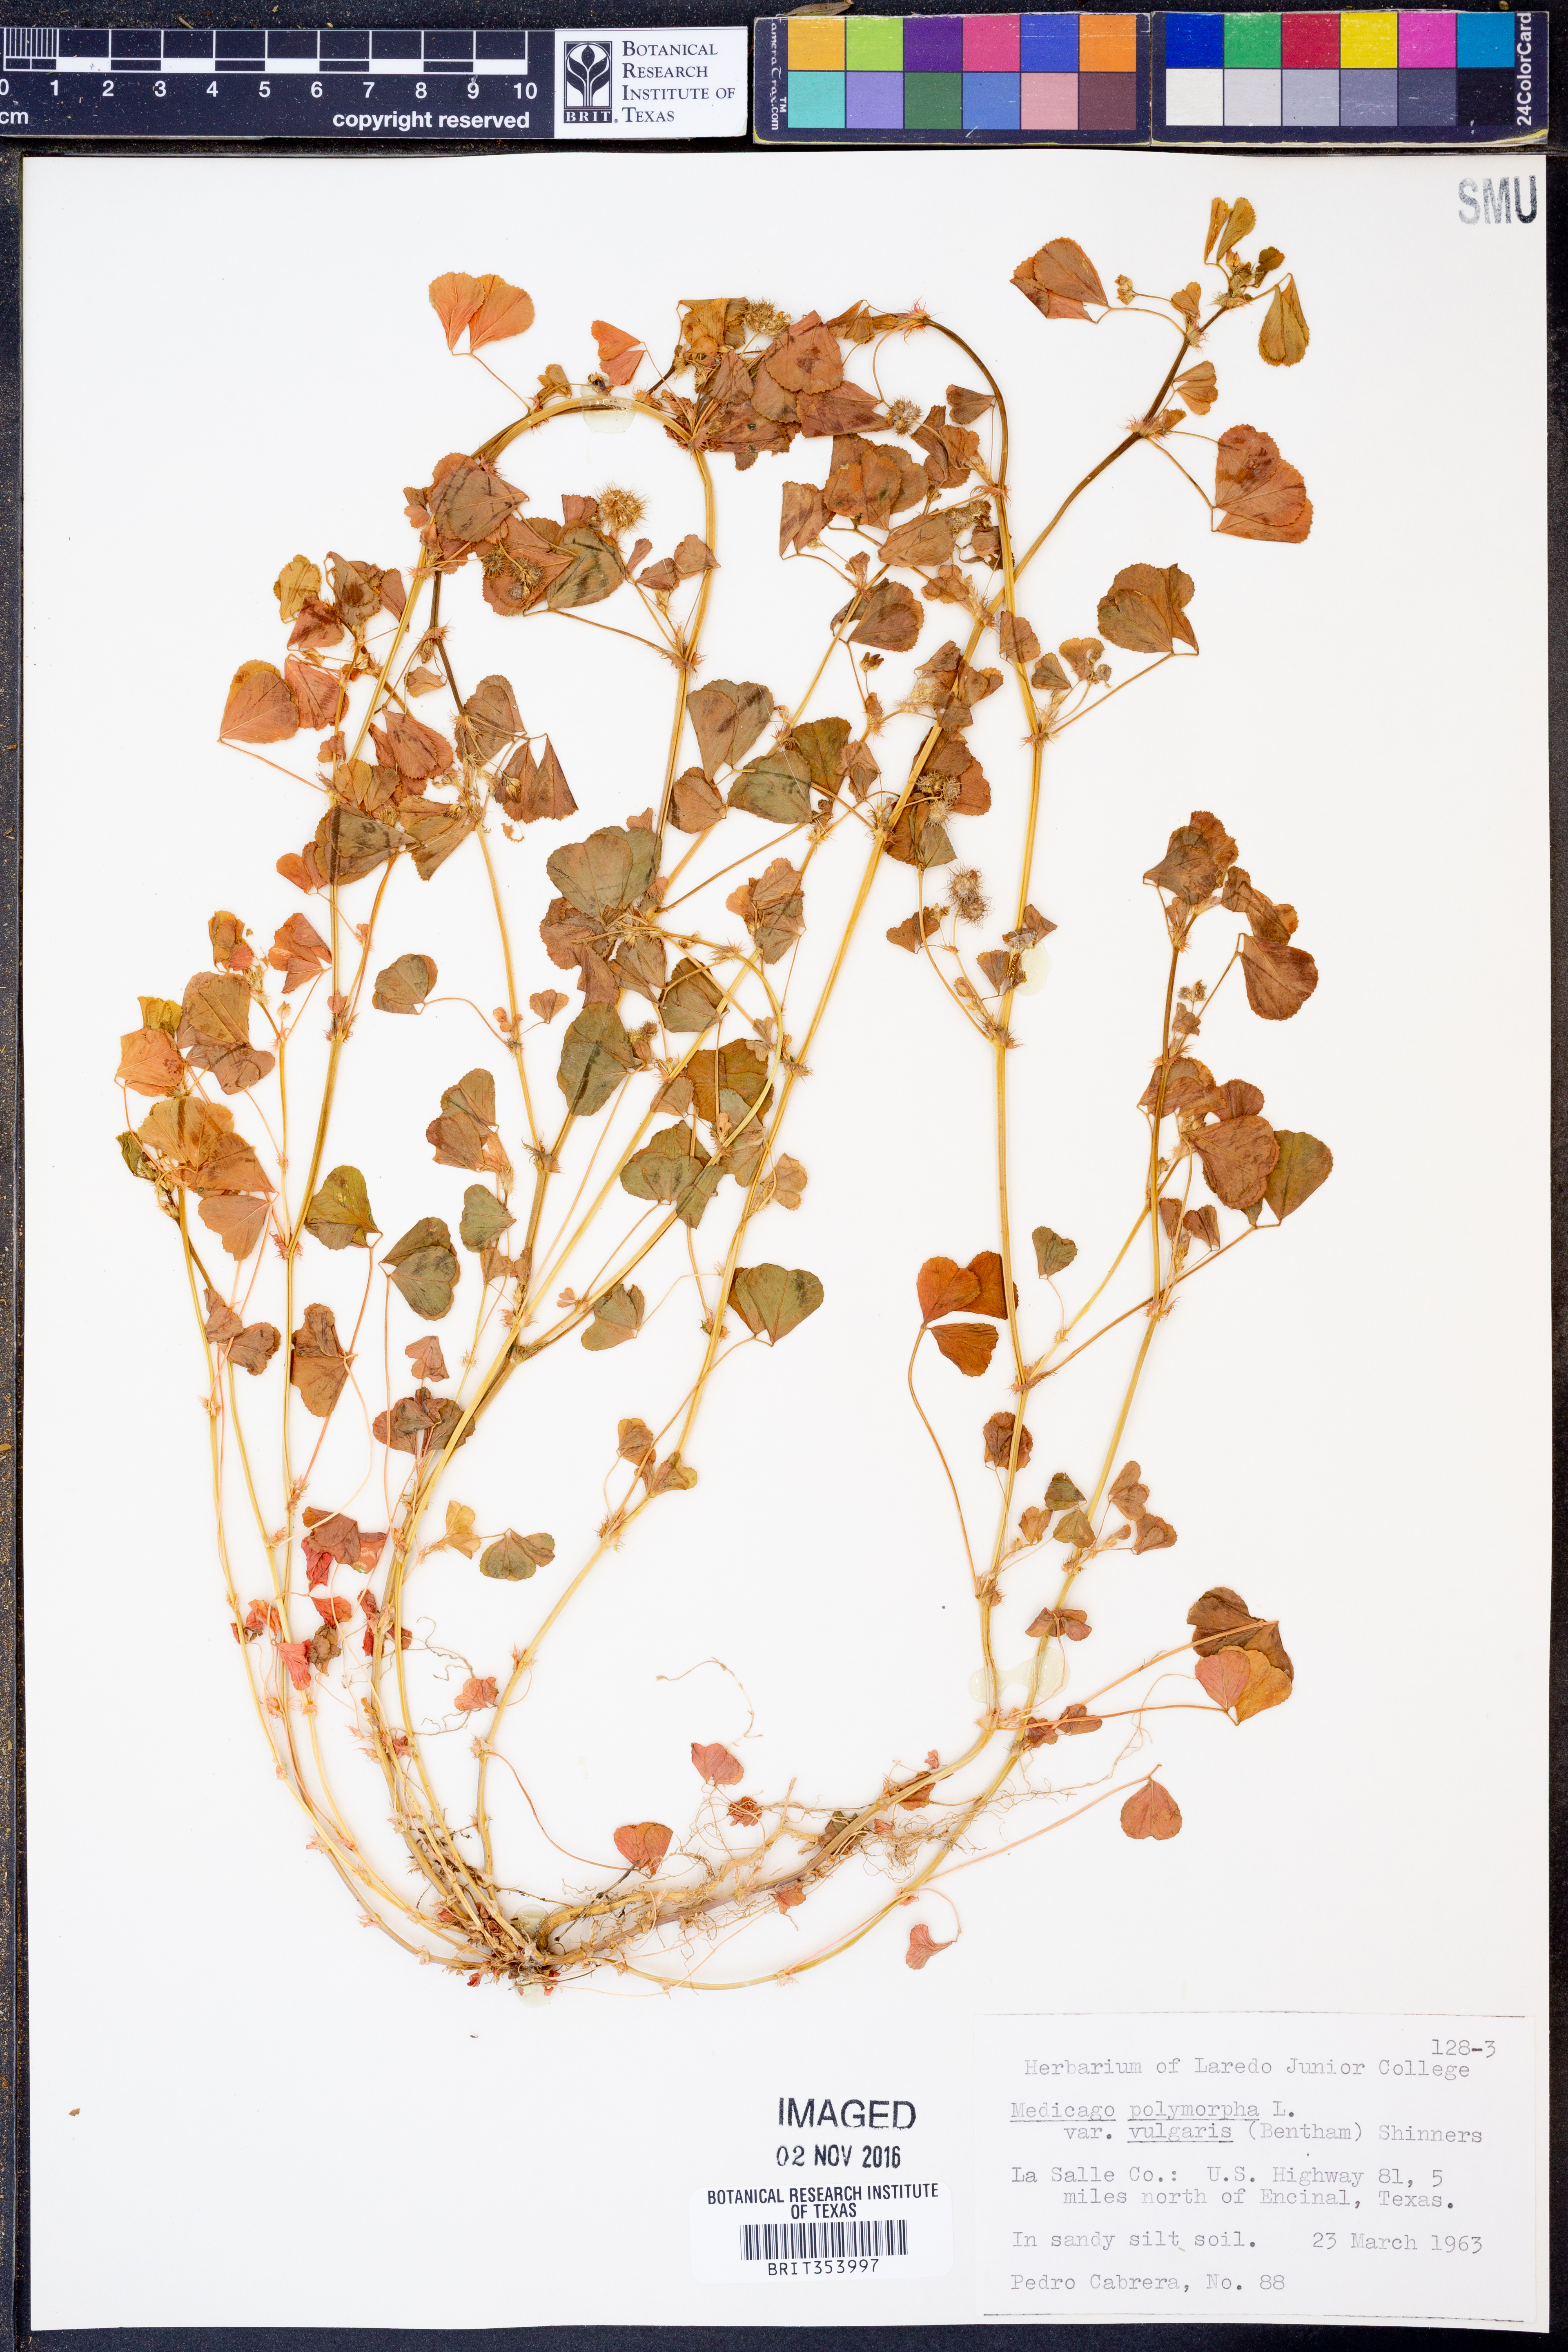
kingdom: Plantae
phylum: Tracheophyta
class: Magnoliopsida
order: Fabales
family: Fabaceae
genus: Medicago
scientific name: Medicago polymorpha
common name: Burclover
